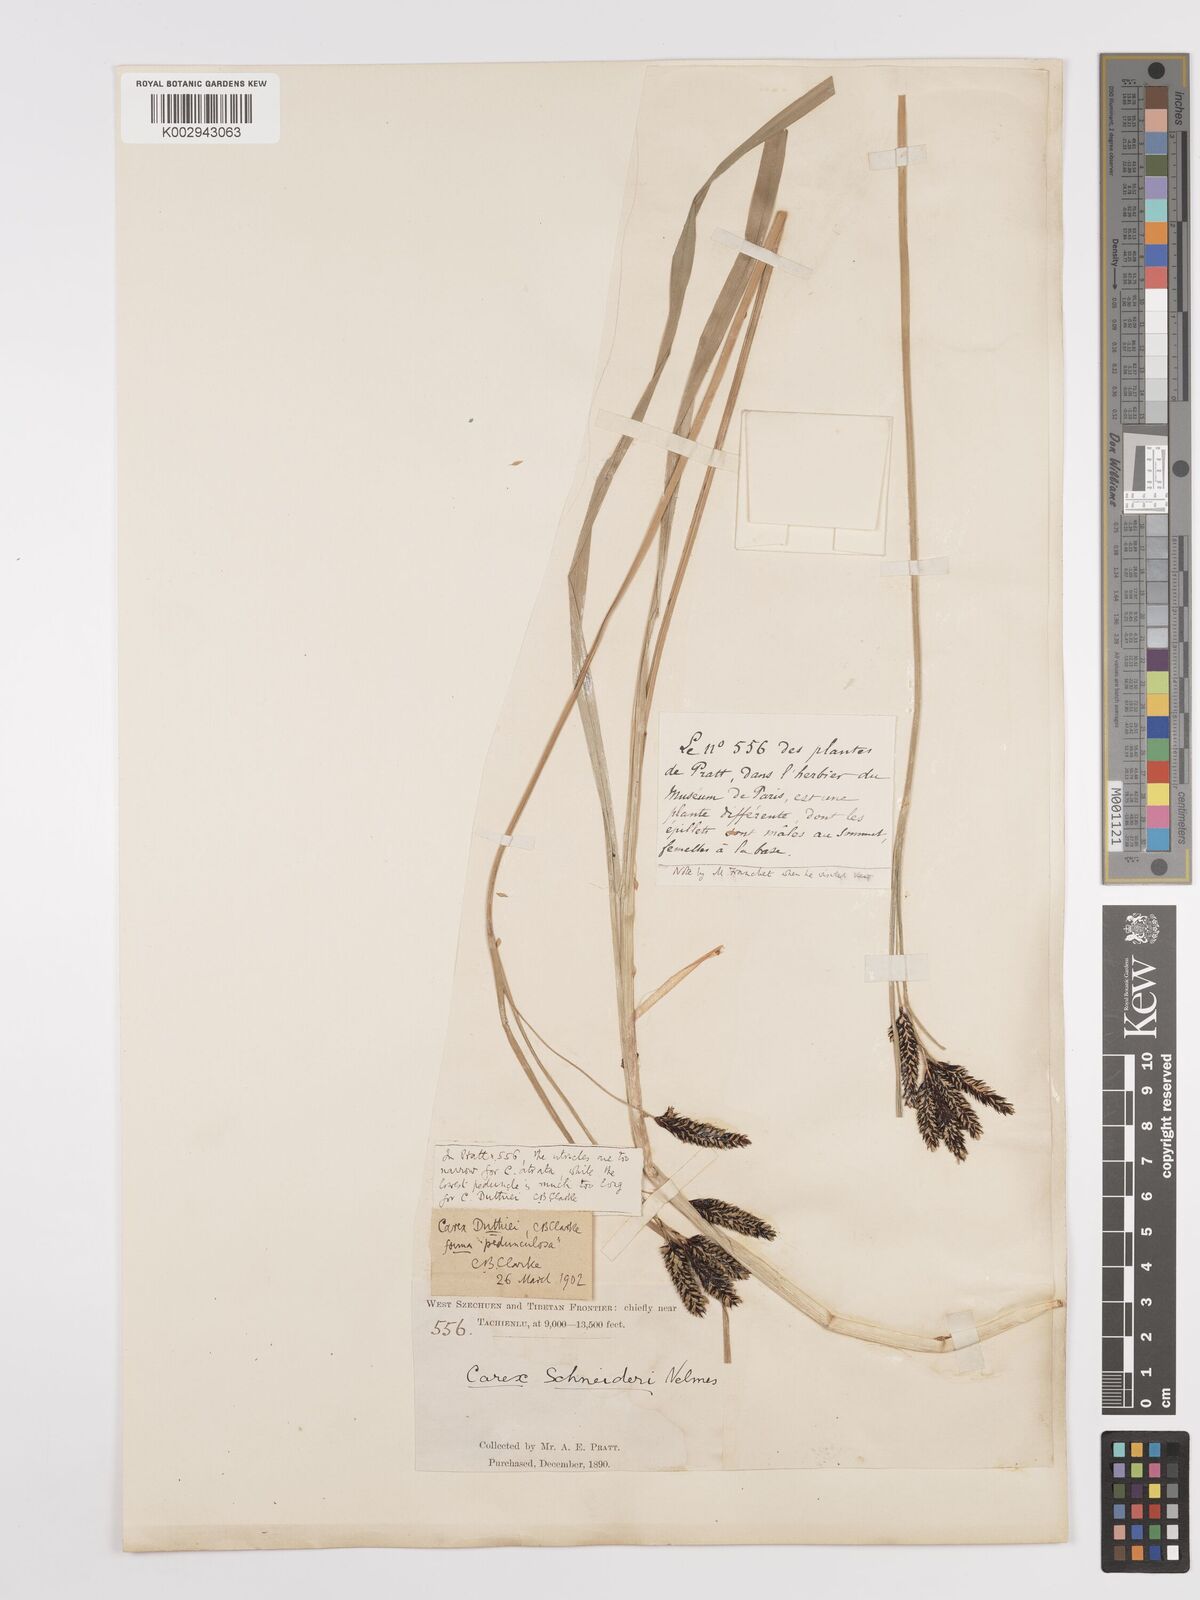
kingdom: Plantae
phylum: Tracheophyta
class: Liliopsida
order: Poales
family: Cyperaceae
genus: Carex
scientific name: Carex schneideri
